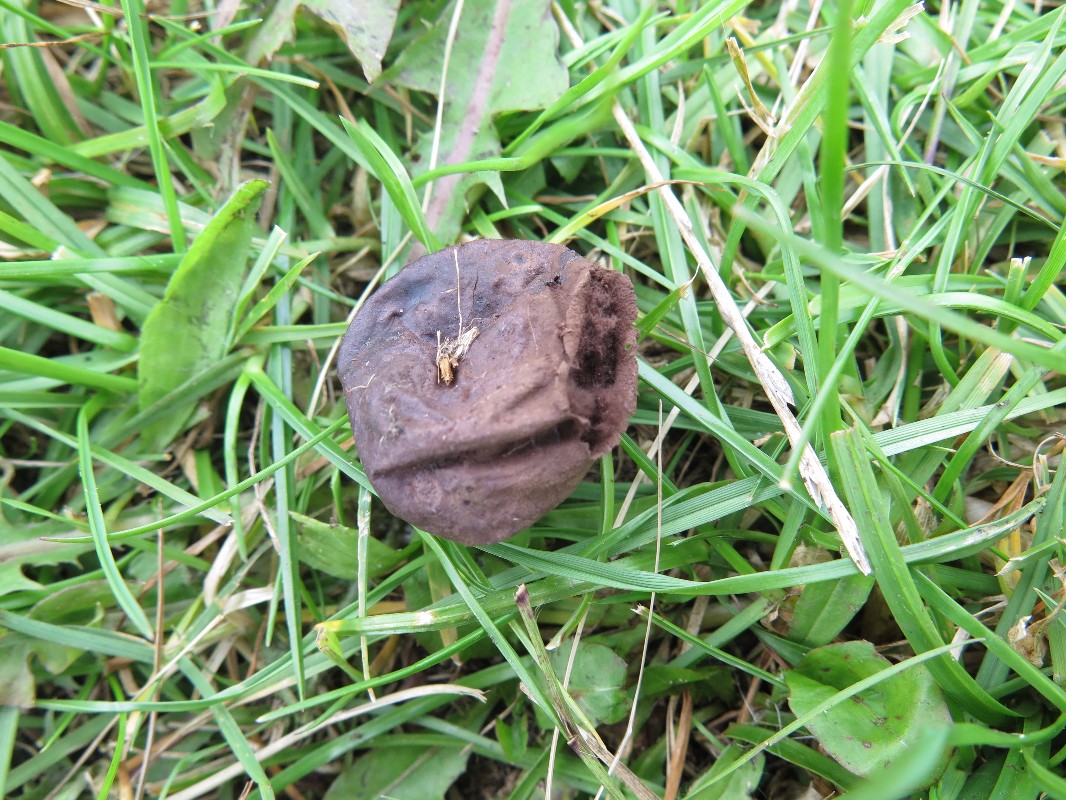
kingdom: Fungi
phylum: Basidiomycota
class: Agaricomycetes
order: Agaricales
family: Lycoperdaceae
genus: Bovista
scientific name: Bovista nigrescens
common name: sortagtig bovist
